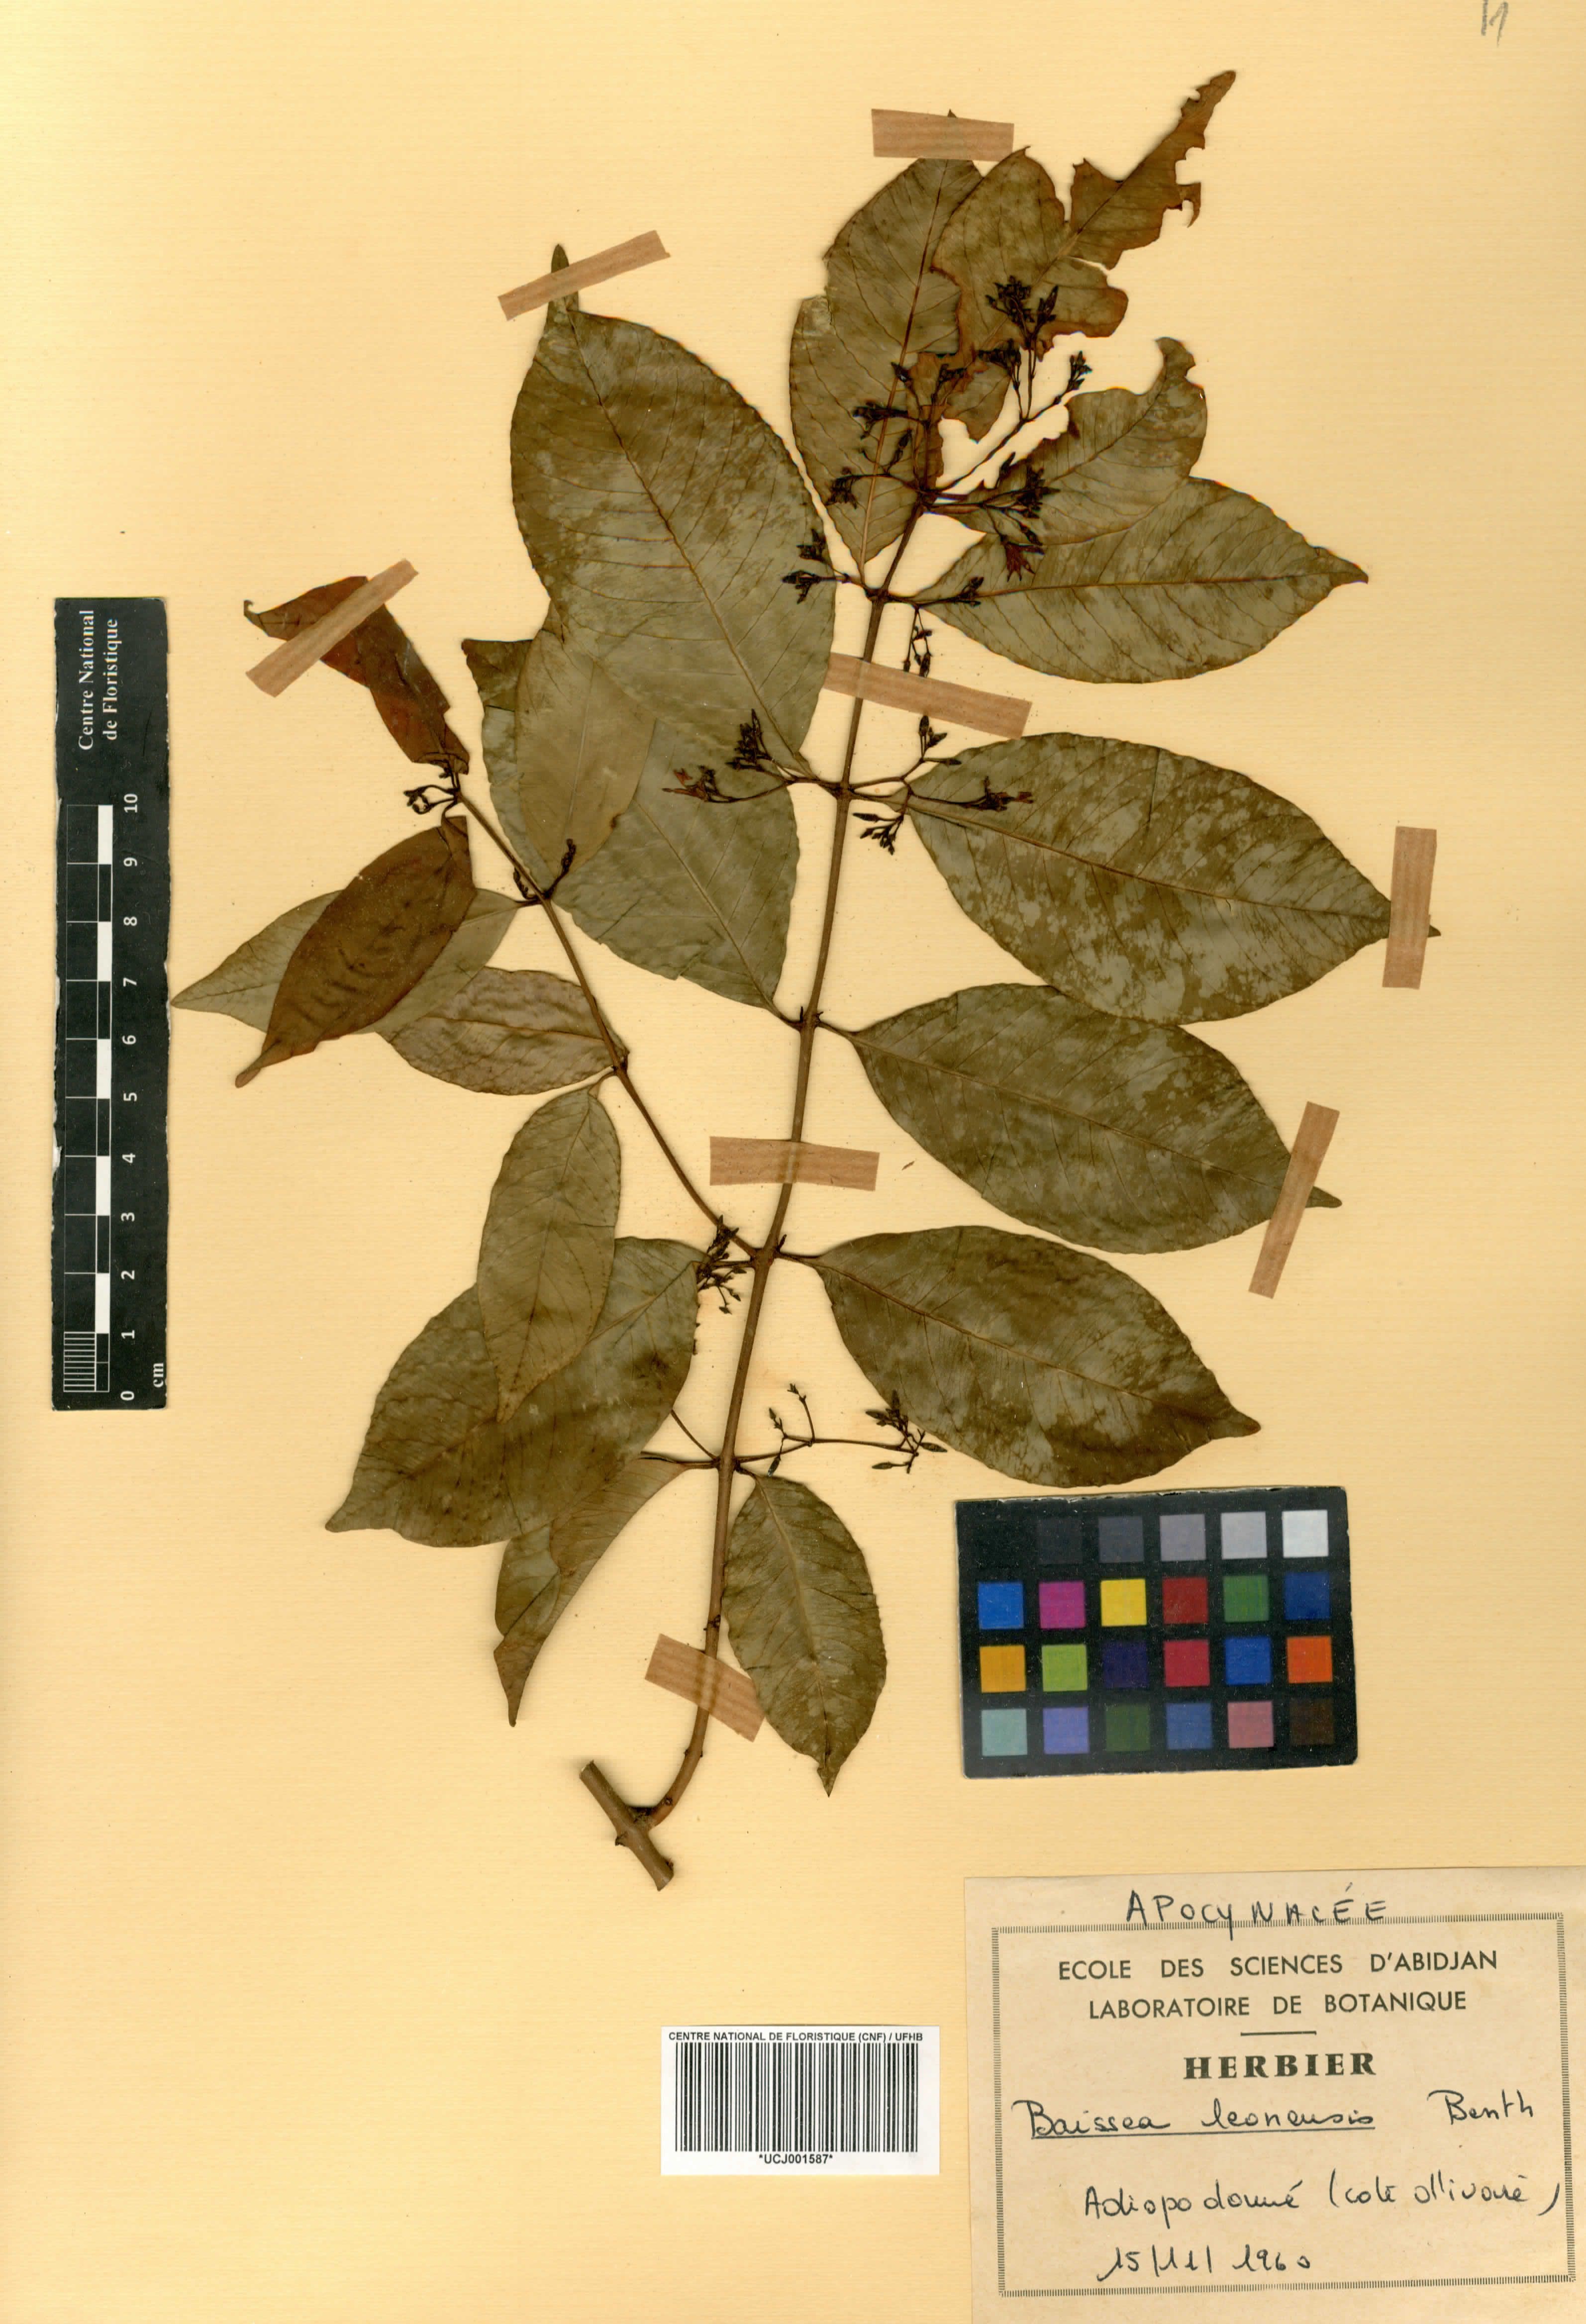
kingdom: Plantae
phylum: Tracheophyta
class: Magnoliopsida
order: Gentianales
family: Apocynaceae
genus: Baissea
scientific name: Baissea leonensis
